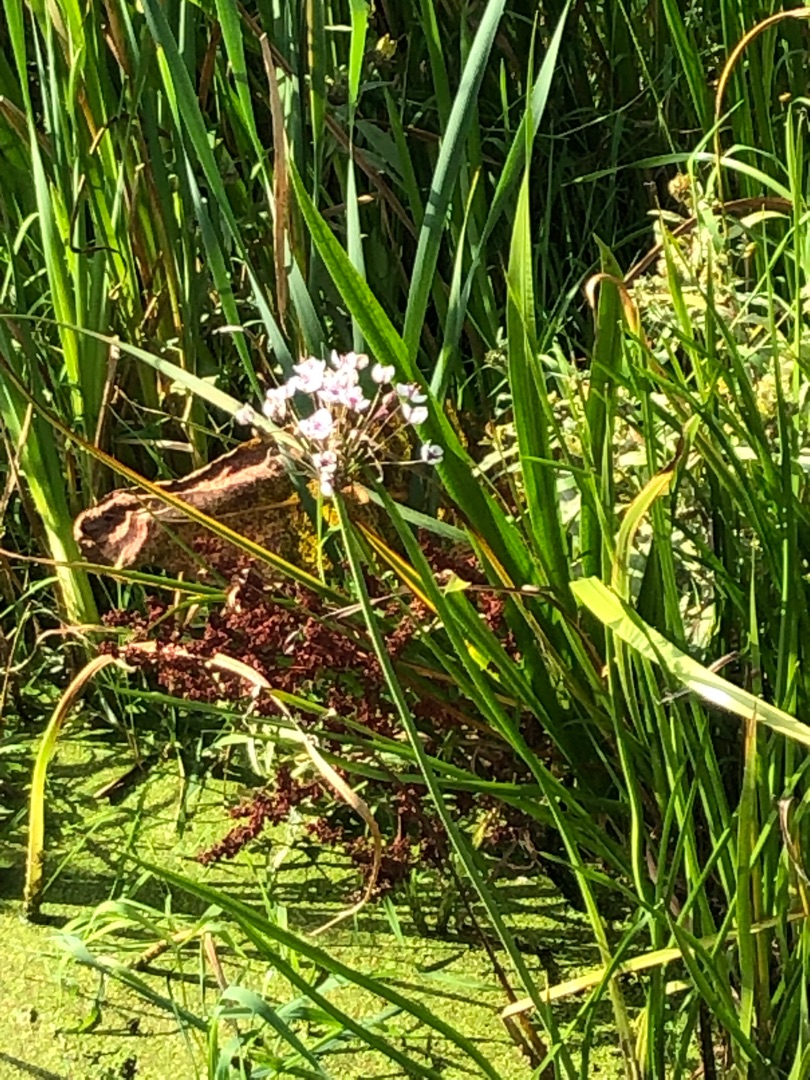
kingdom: Plantae
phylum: Tracheophyta
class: Liliopsida
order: Alismatales
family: Butomaceae
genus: Butomus
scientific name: Butomus umbellatus
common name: Brudelys
